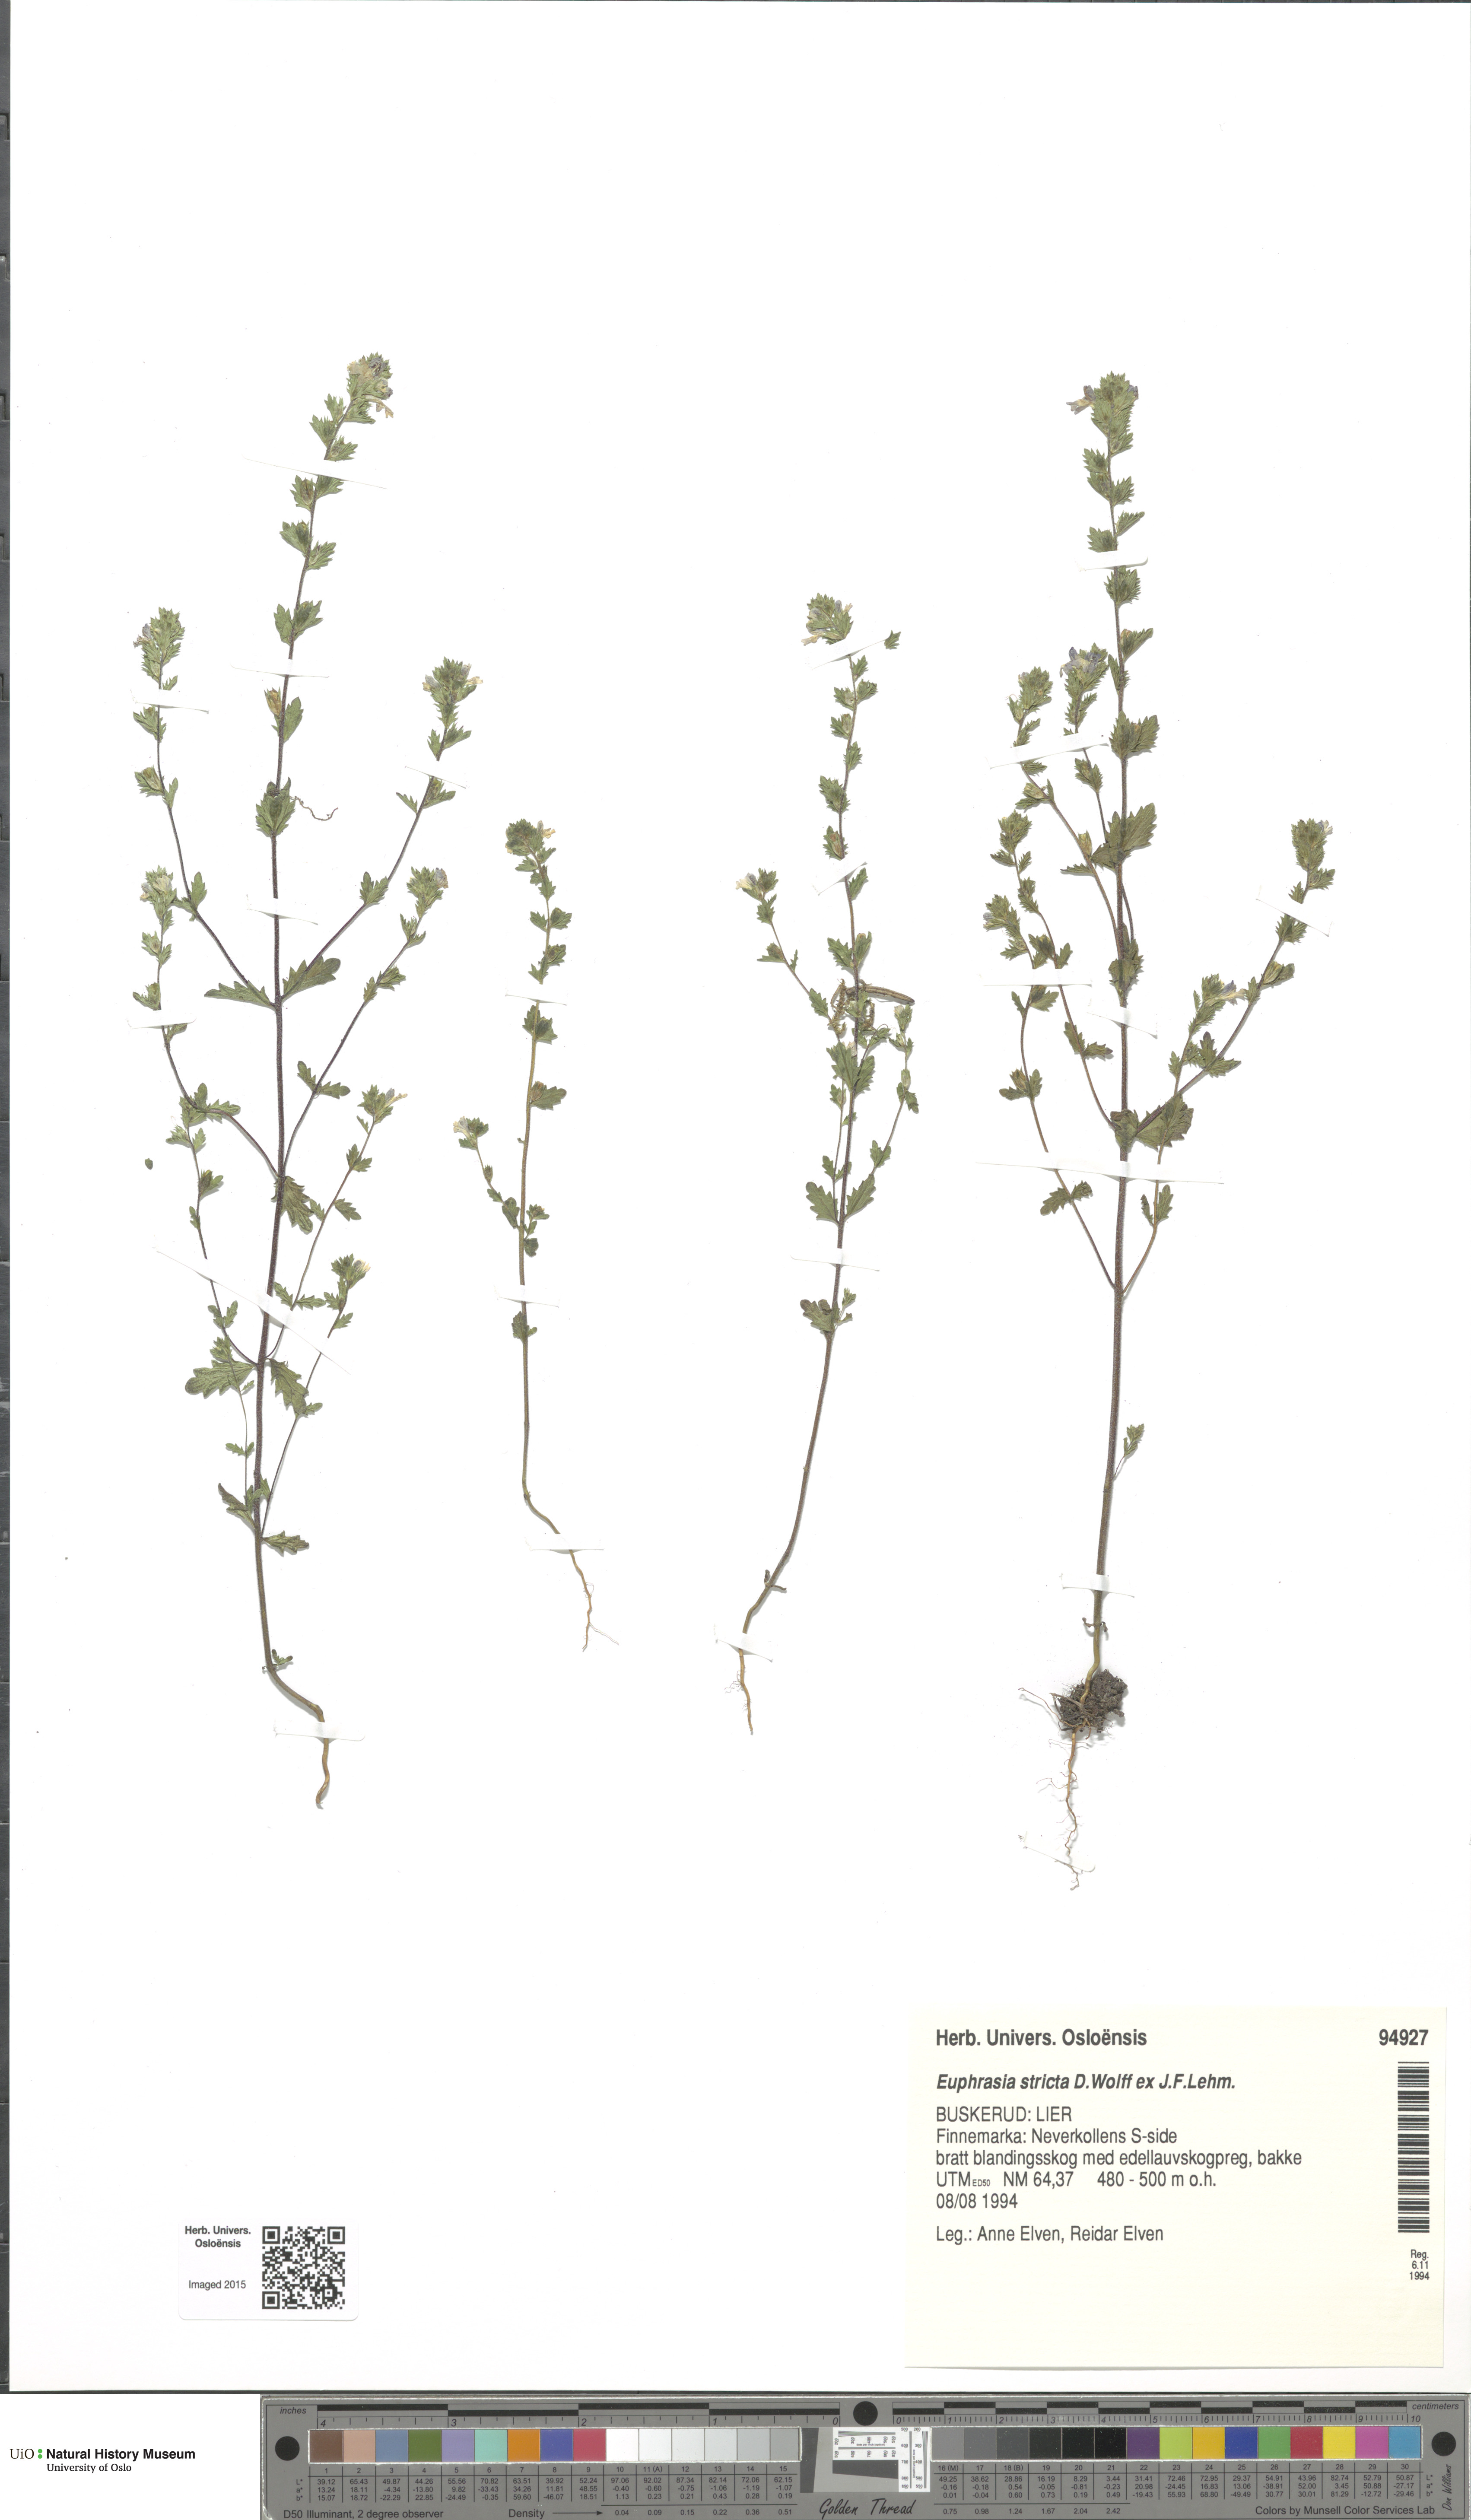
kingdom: Plantae
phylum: Tracheophyta
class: Magnoliopsida
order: Lamiales
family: Orobanchaceae
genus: Euphrasia
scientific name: Euphrasia stricta
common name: Drug eyebright
